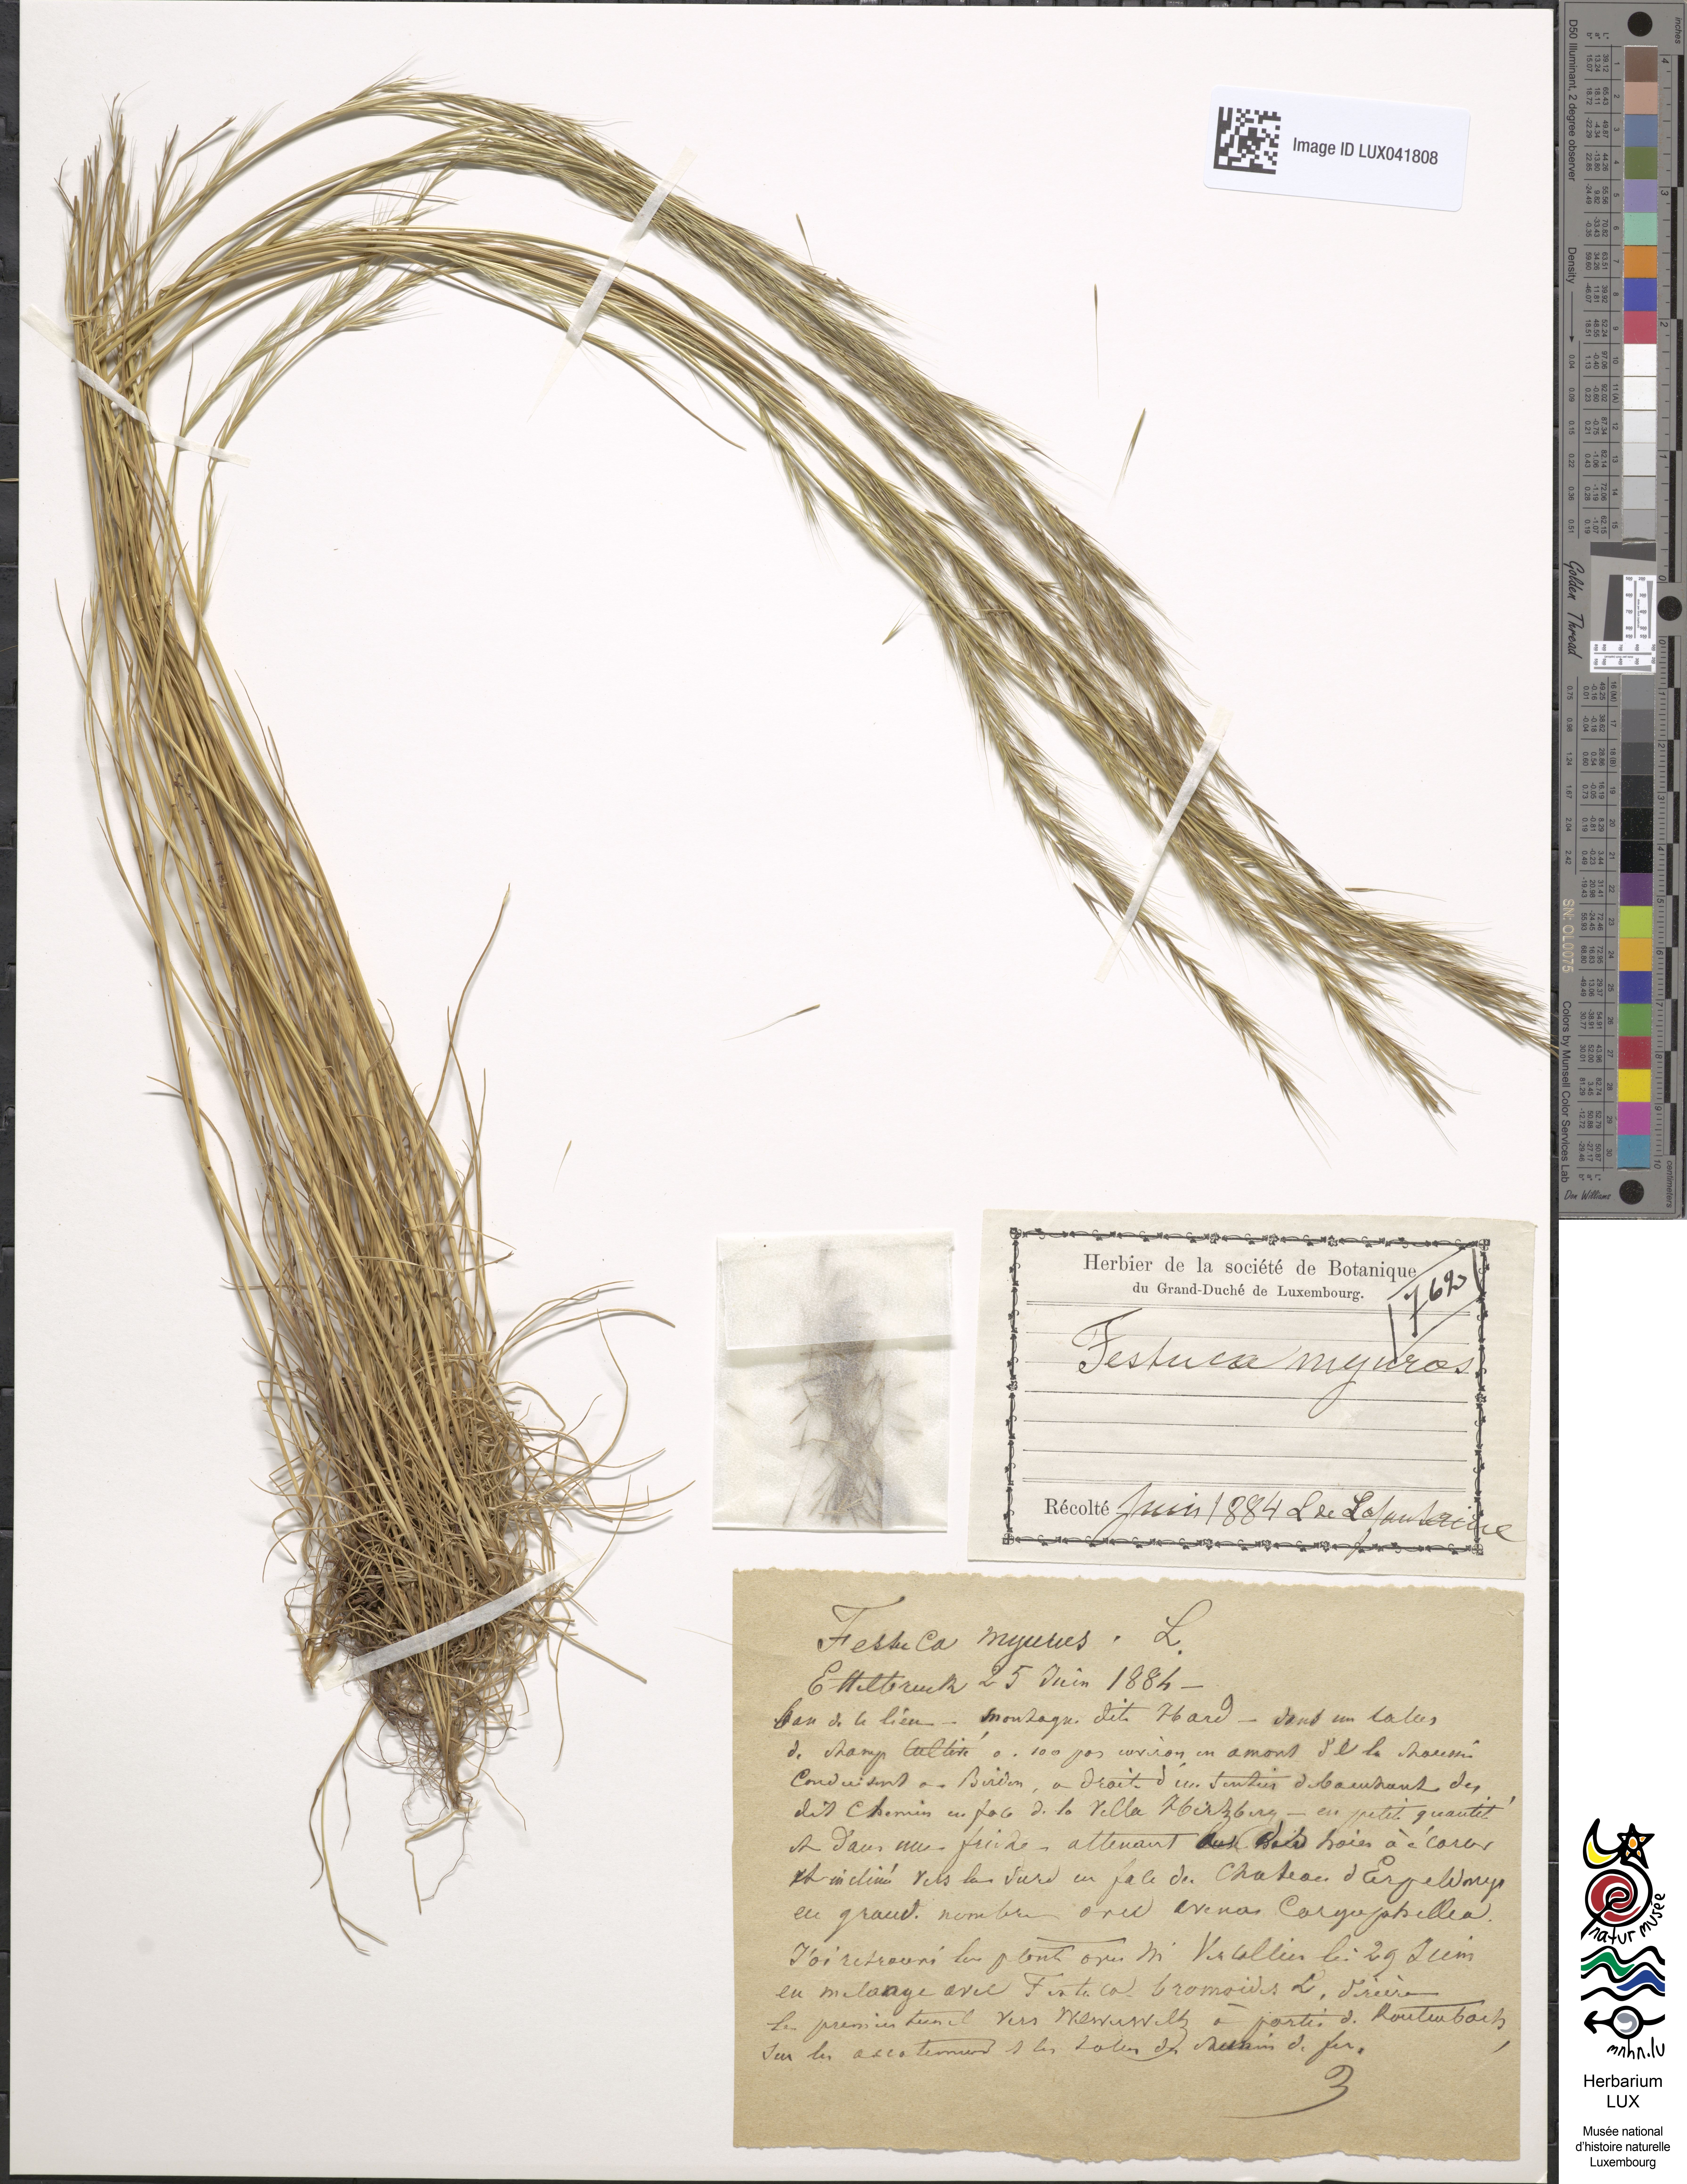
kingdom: Plantae
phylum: Tracheophyta
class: Liliopsida
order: Poales
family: Poaceae
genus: Festuca
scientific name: Festuca myuros
